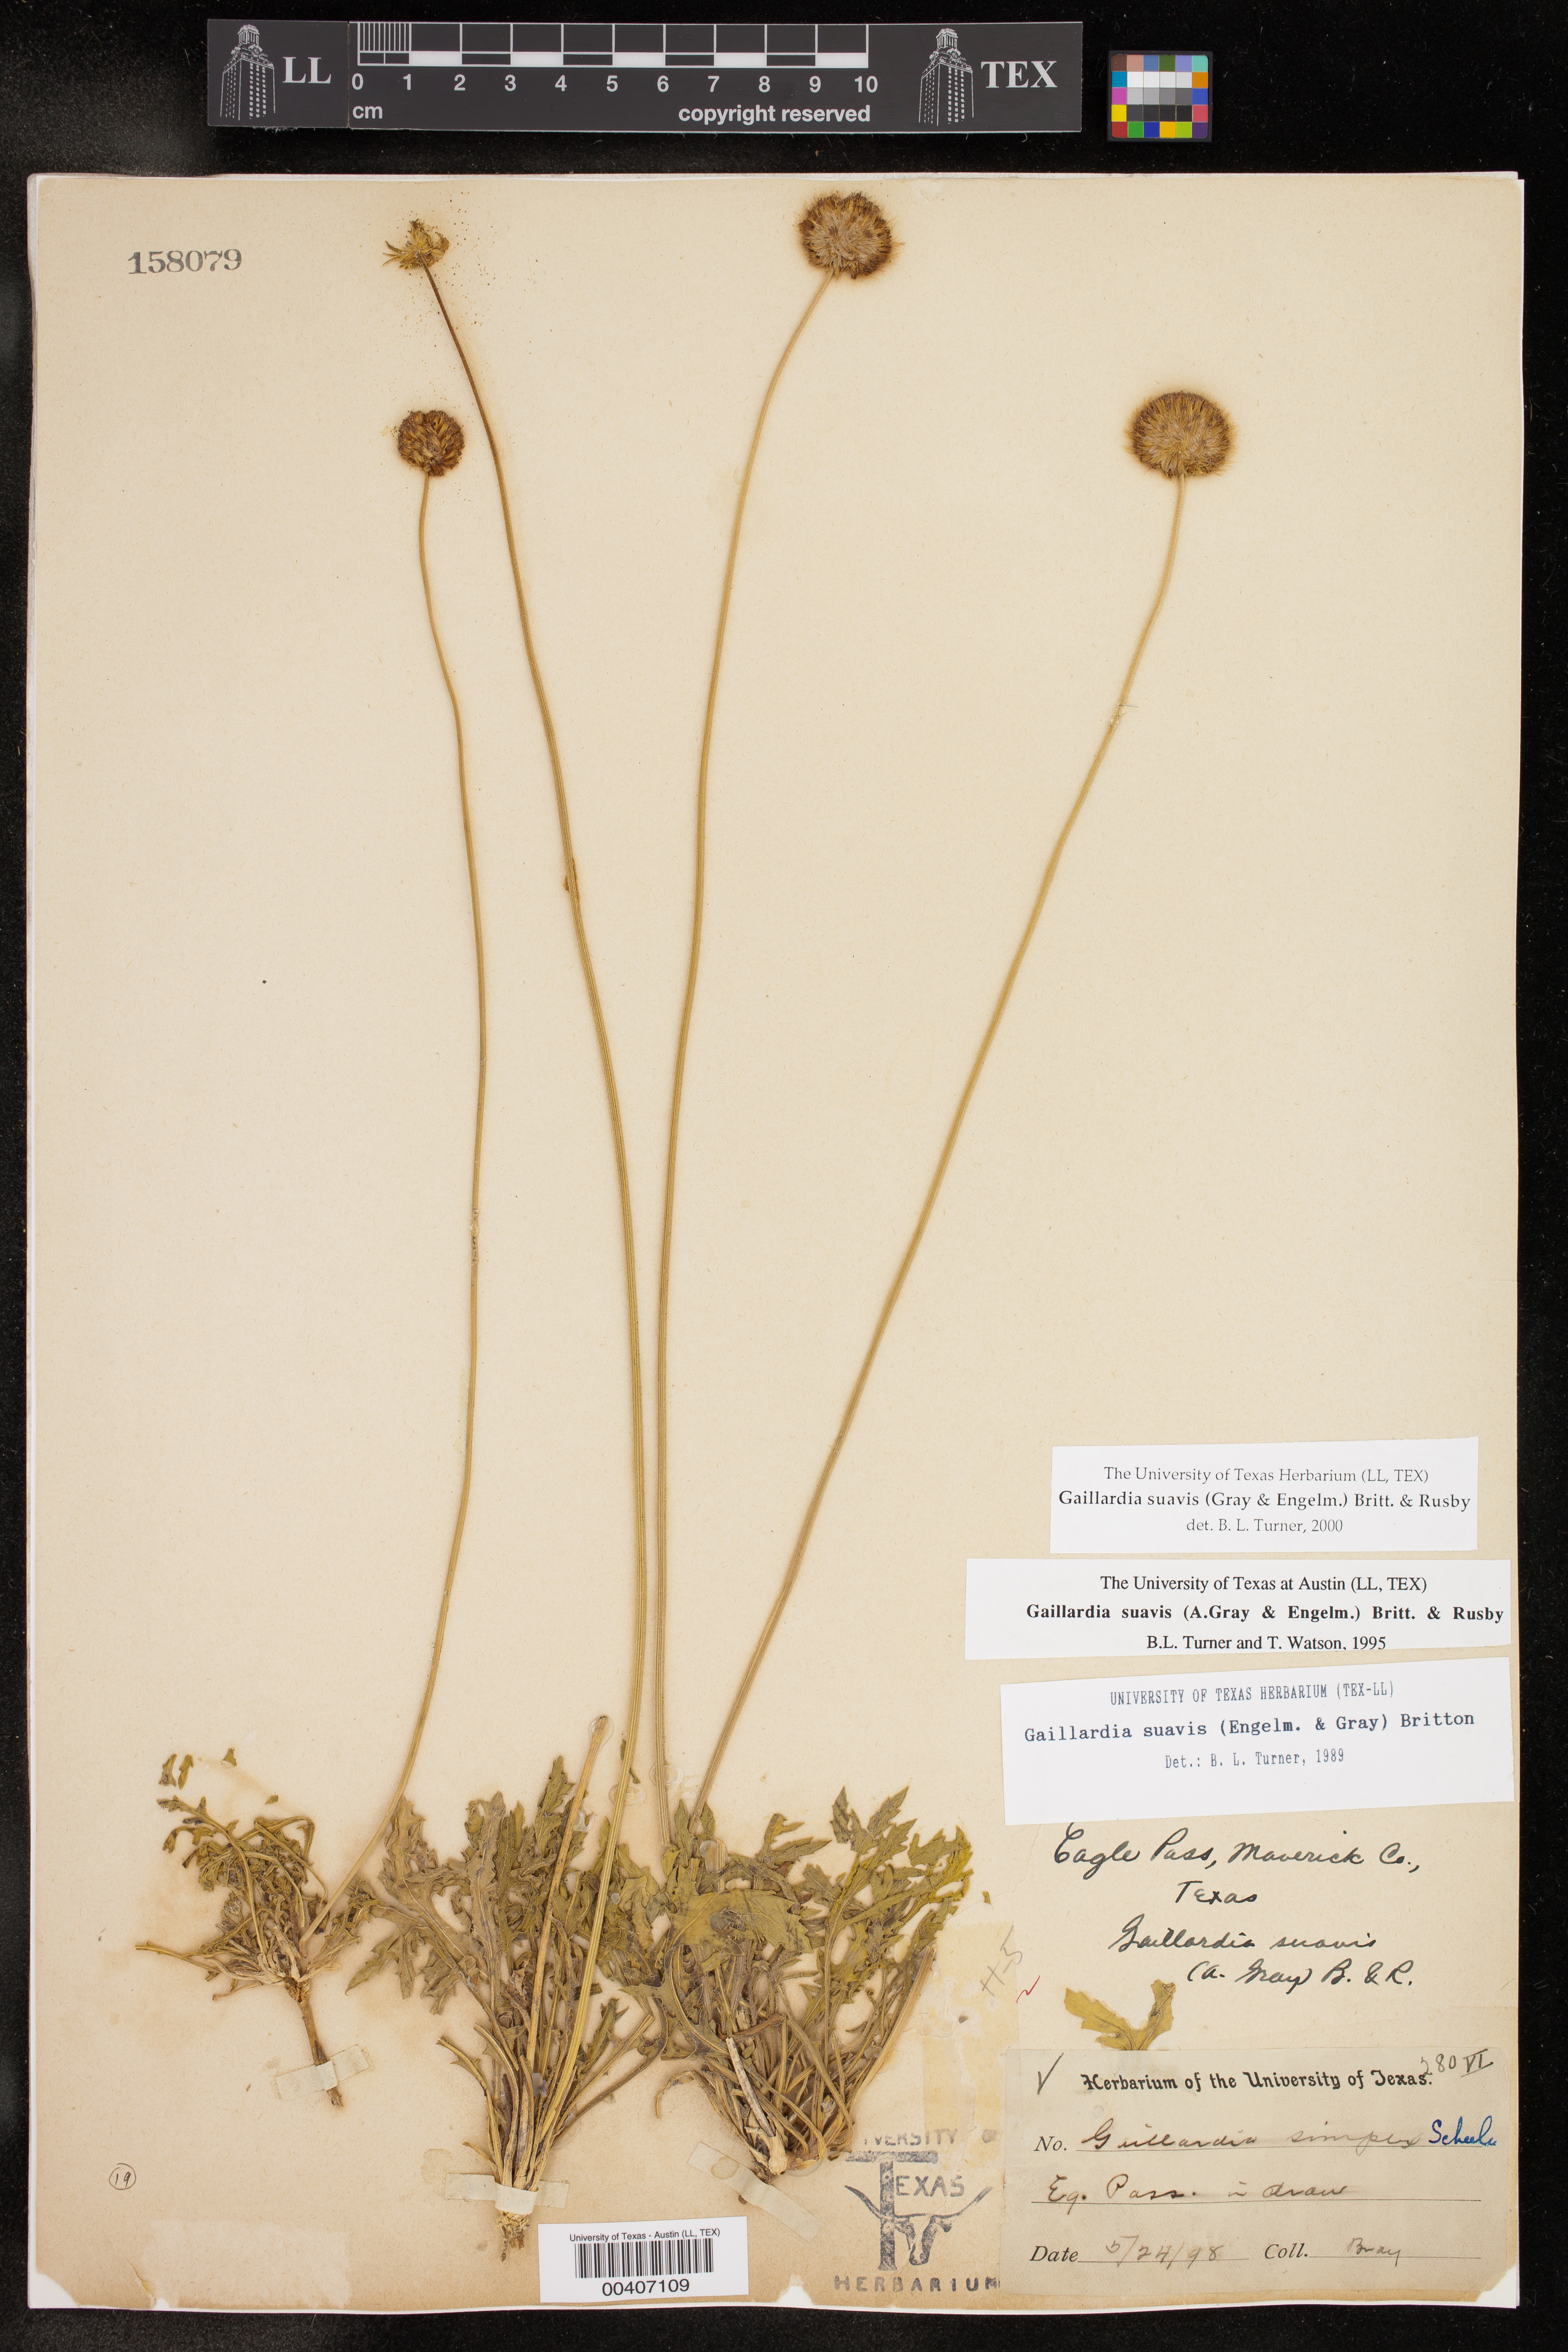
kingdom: Plantae
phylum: Tracheophyta
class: Magnoliopsida
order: Asterales
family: Asteraceae
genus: Gaillardia
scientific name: Gaillardia suavis
